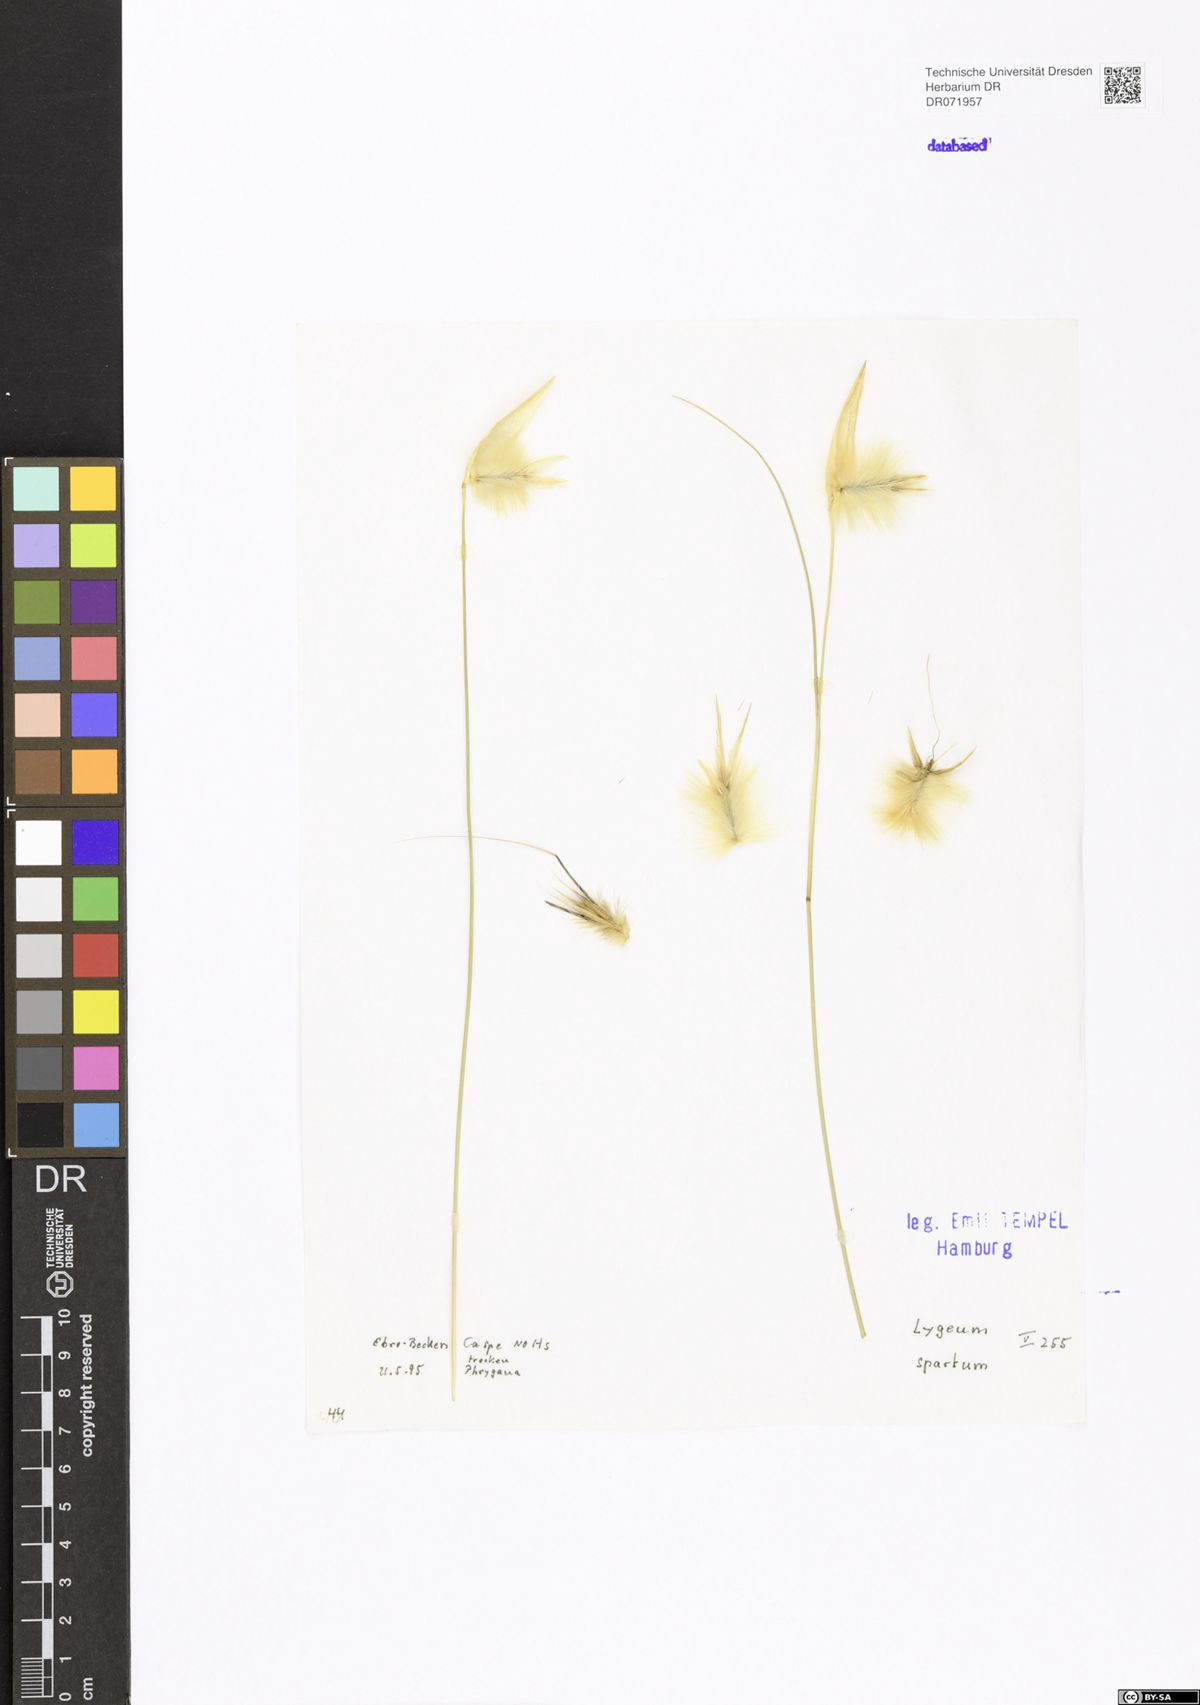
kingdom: Plantae
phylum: Tracheophyta
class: Liliopsida
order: Poales
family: Poaceae
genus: Lygeum
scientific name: Lygeum spartum
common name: Albardine
